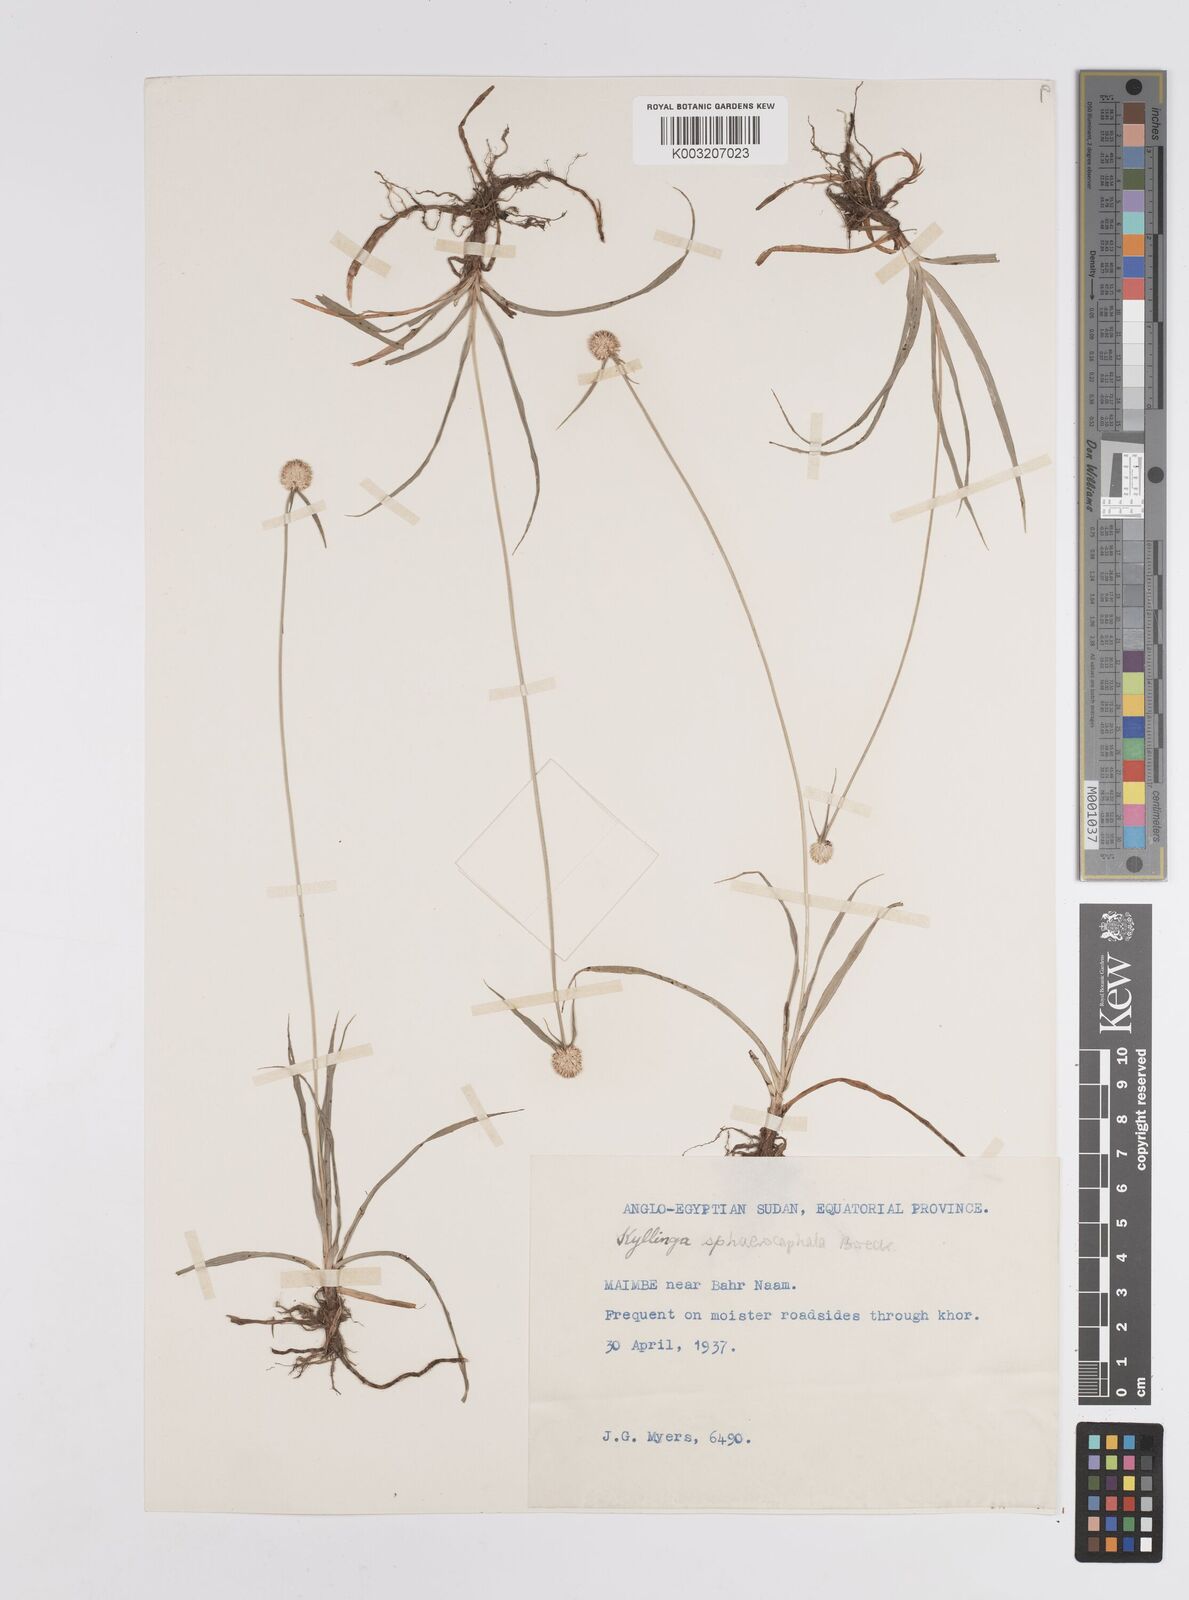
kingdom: Plantae
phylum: Tracheophyta
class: Liliopsida
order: Poales
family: Cyperaceae
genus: Cyperus
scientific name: Cyperus sphaerocephalus
